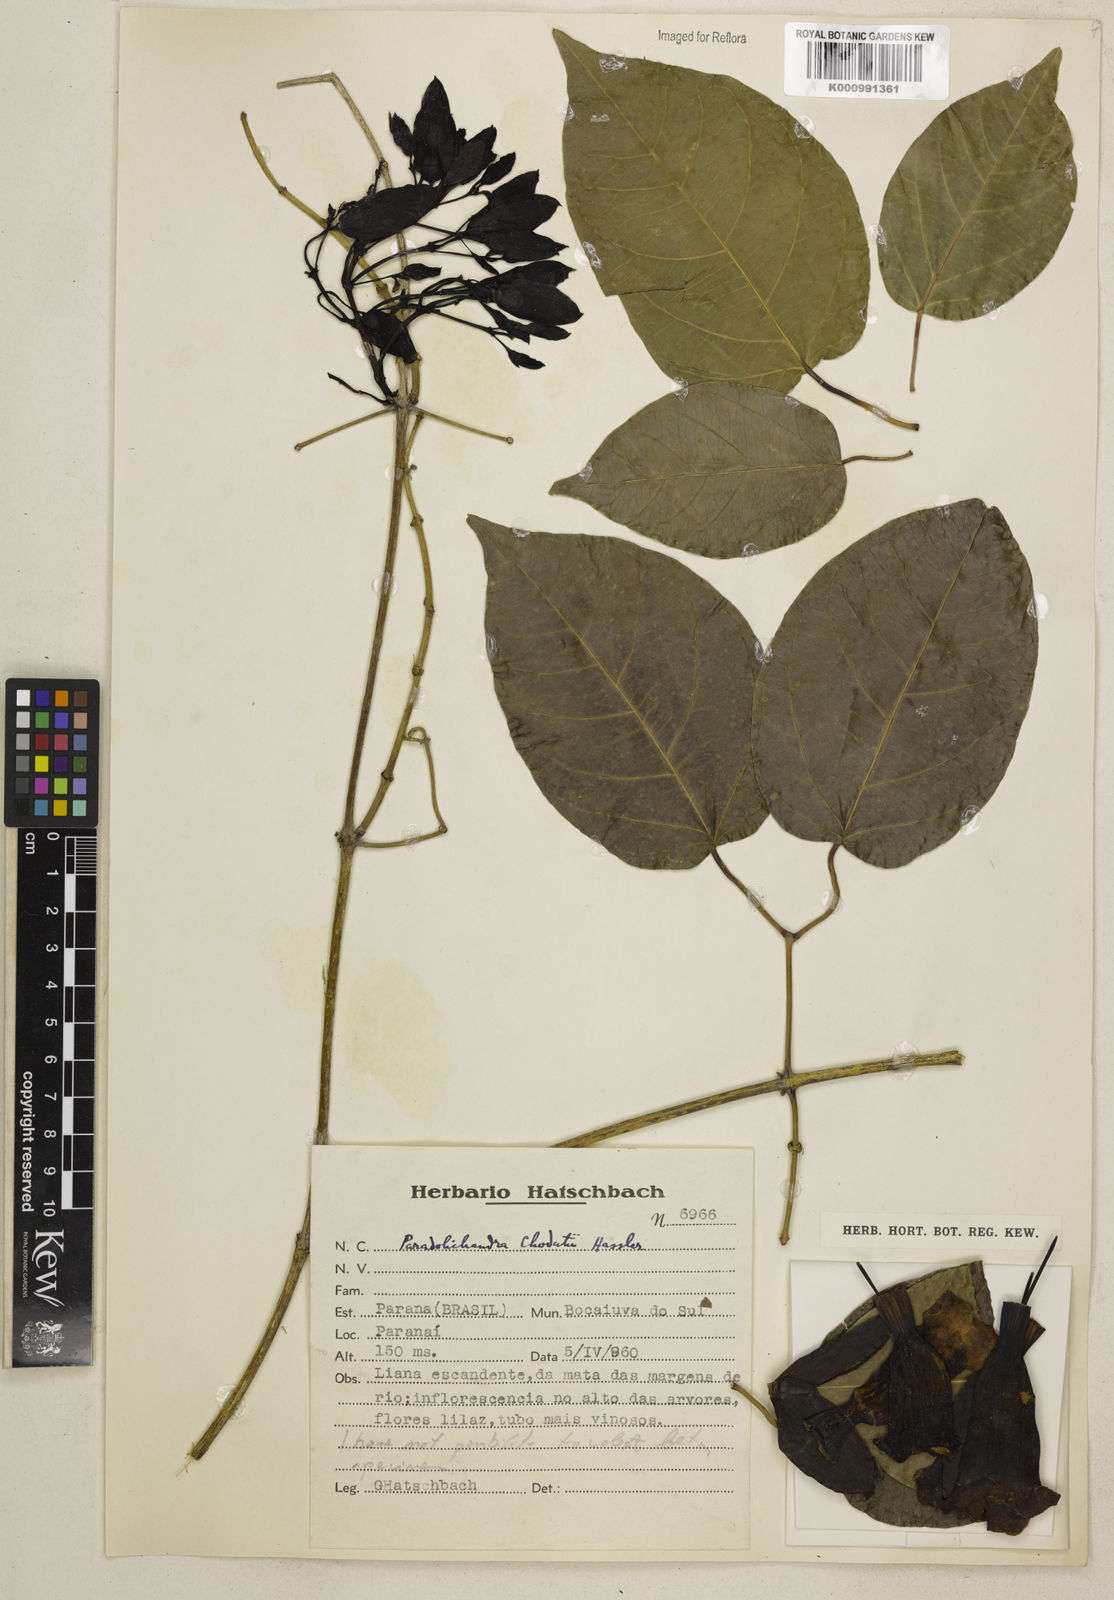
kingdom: Plantae
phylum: Tracheophyta
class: Magnoliopsida
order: Lamiales
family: Bignoniaceae
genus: Adenocalymma
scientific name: Adenocalymma
